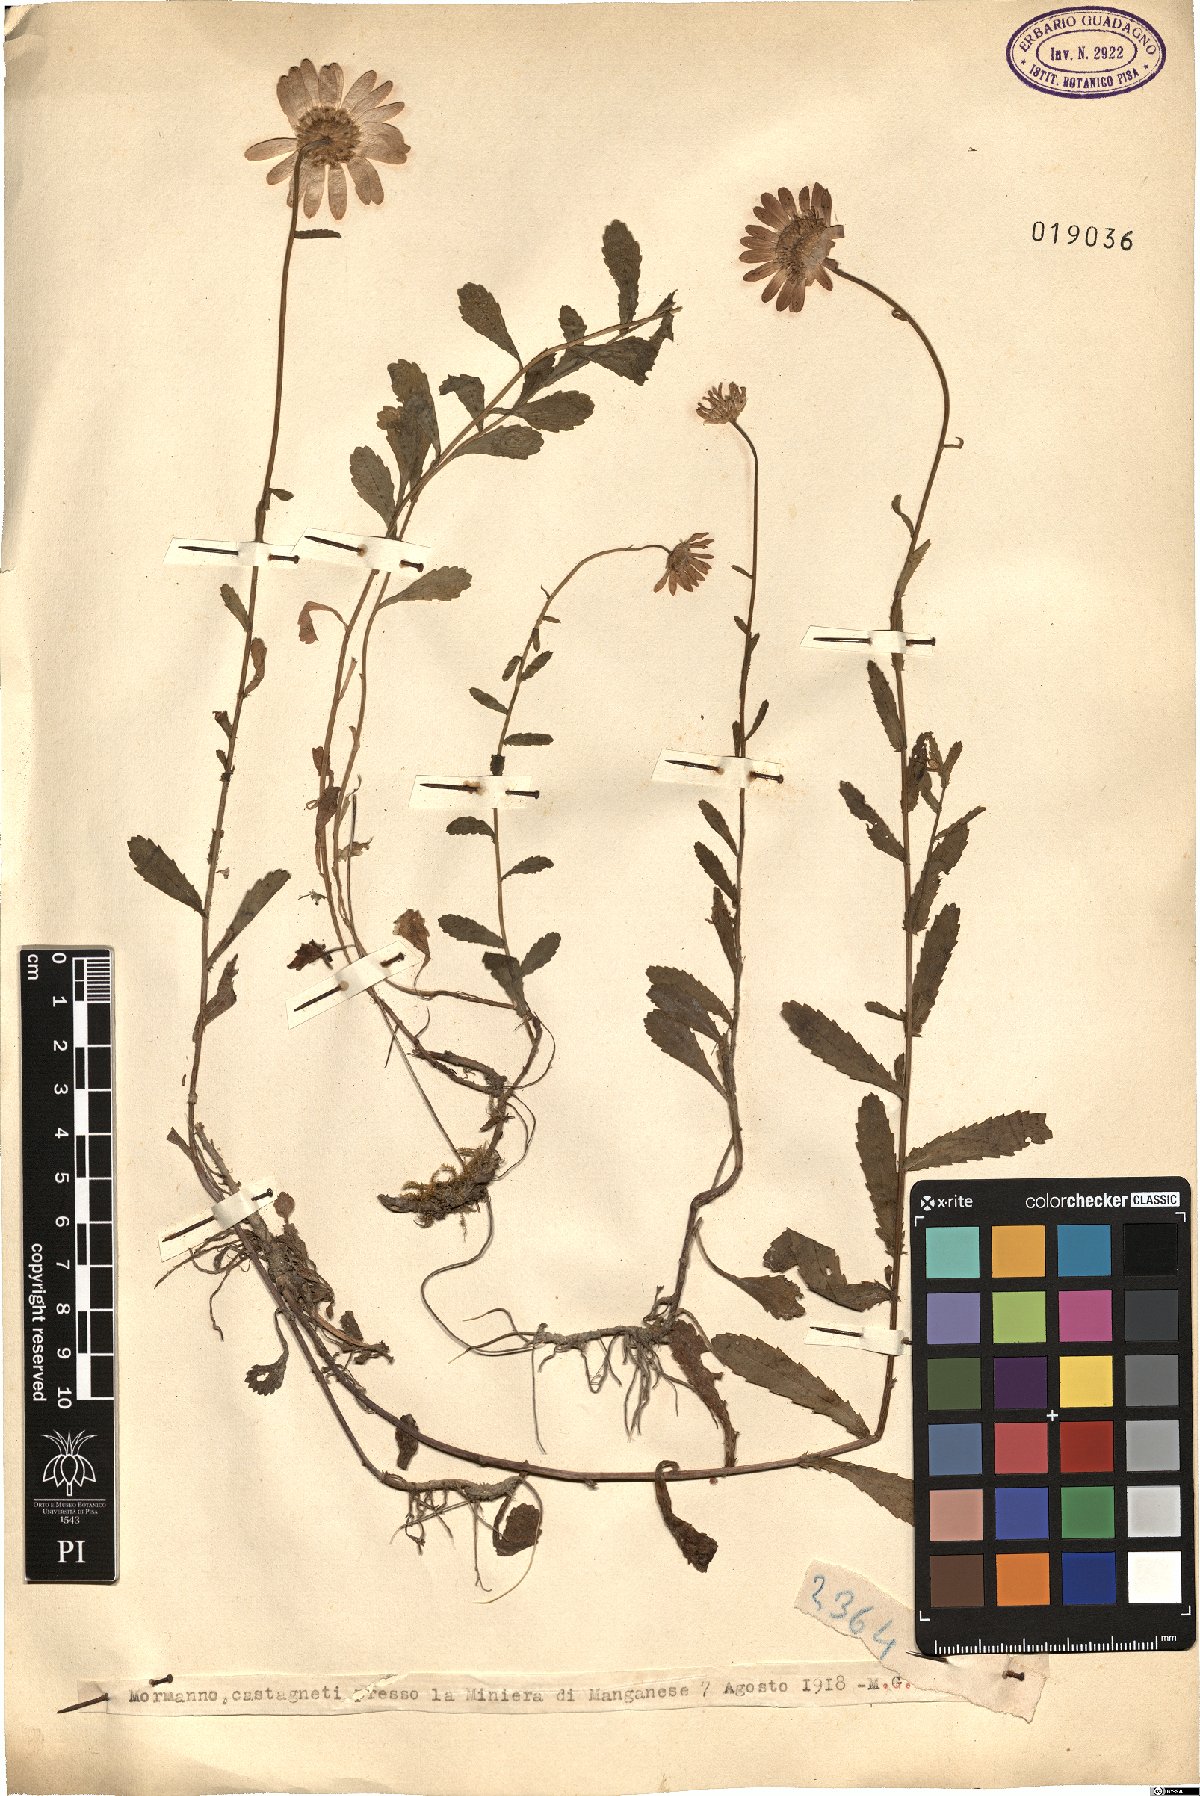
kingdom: Plantae
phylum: Tracheophyta
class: Magnoliopsida
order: Asterales
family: Asteraceae
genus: Pyrethrum
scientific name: Pyrethrum
